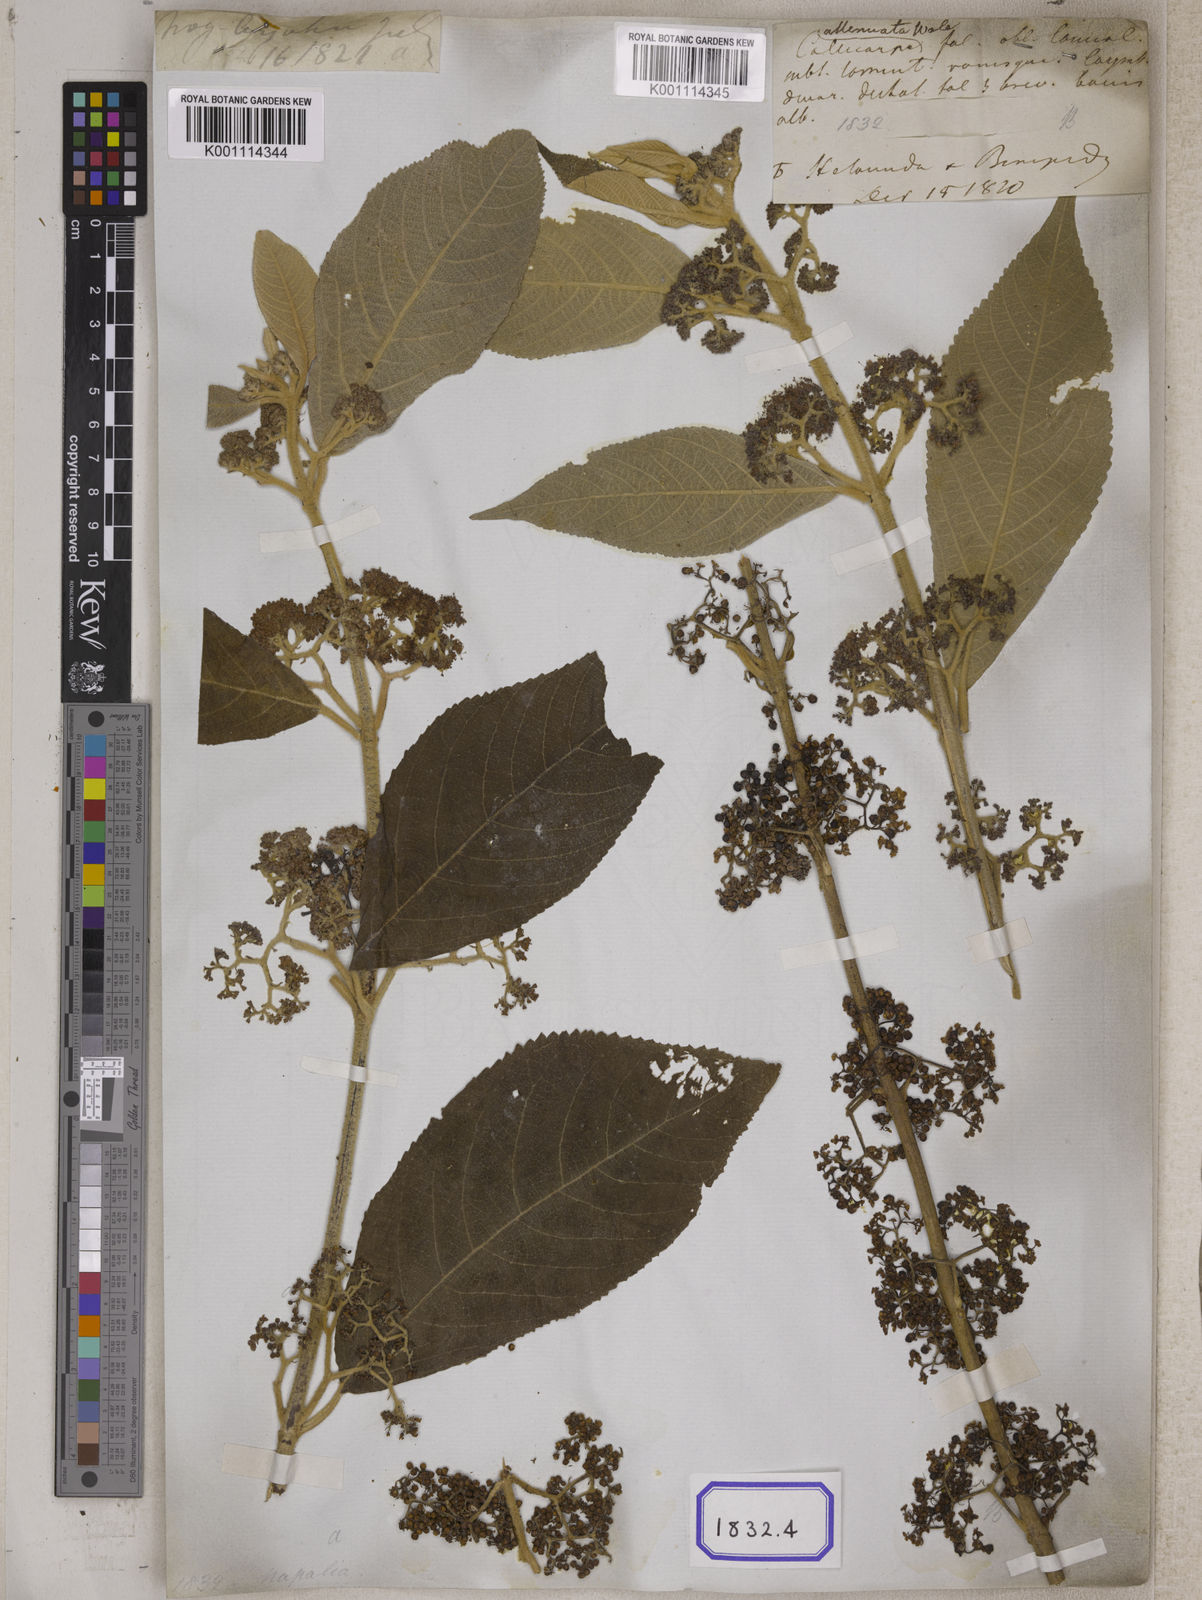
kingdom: Plantae
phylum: Tracheophyta
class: Magnoliopsida
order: Lamiales
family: Lamiaceae
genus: Callicarpa
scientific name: Callicarpa macrophylla
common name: Urn-fruit beauty-berry
